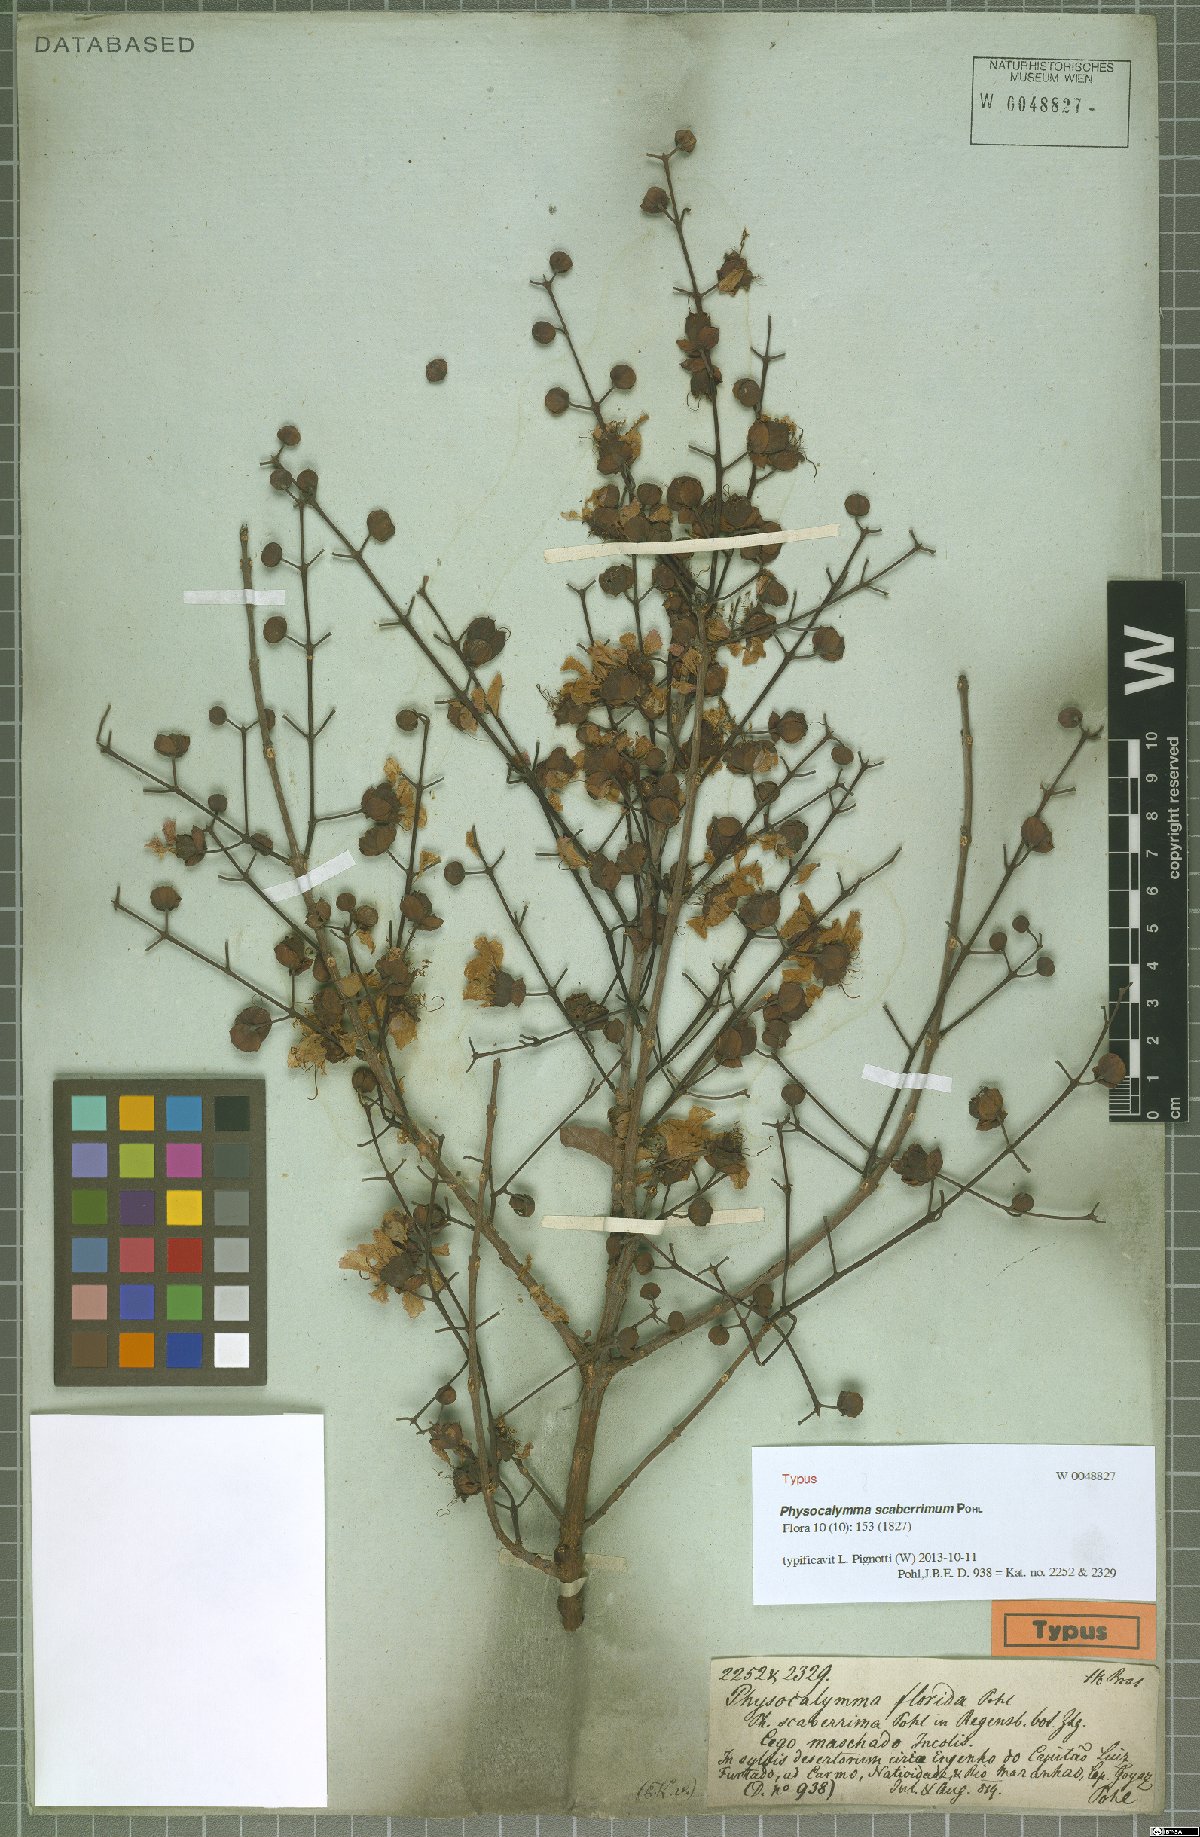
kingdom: Plantae
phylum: Tracheophyta
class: Magnoliopsida
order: Myrtales
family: Lythraceae
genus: Physocalymma
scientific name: Physocalymma scaberrimum
